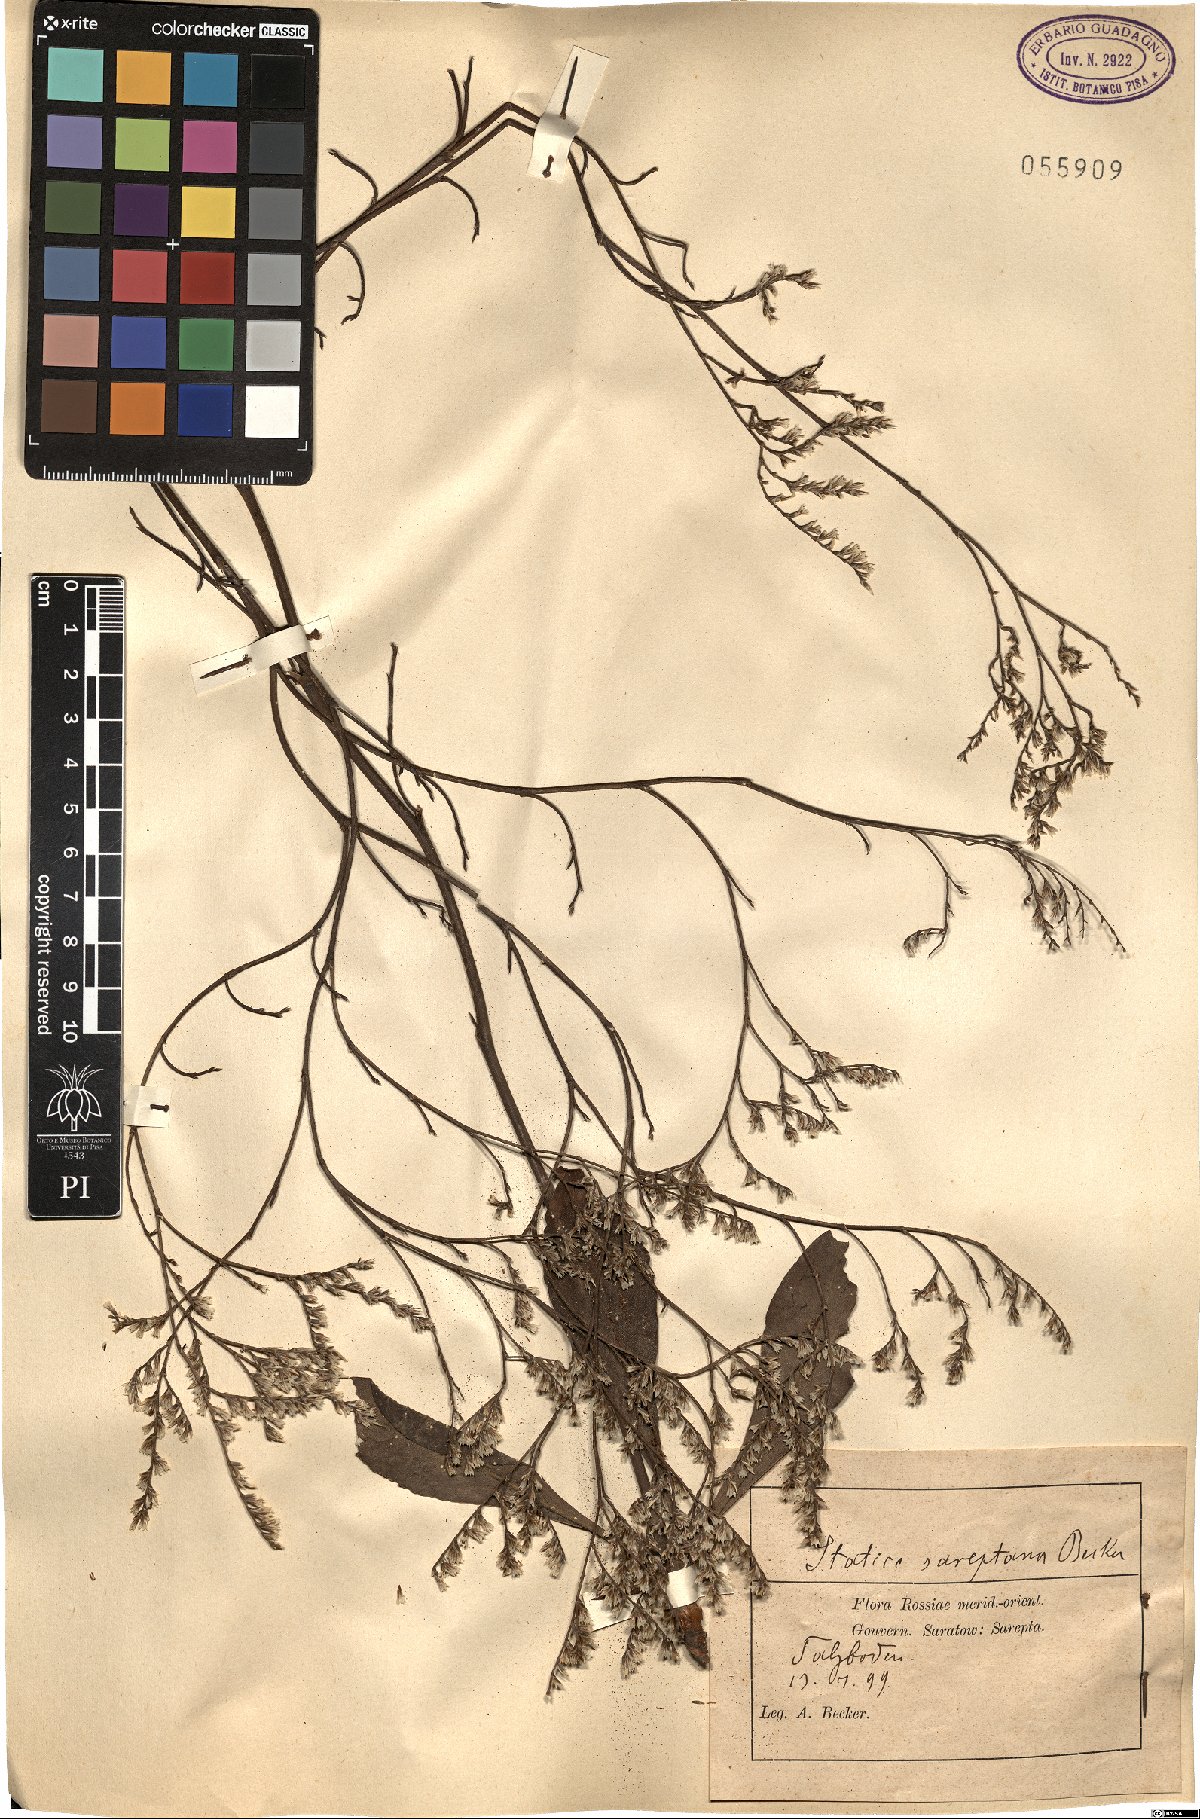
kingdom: Plantae
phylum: Tracheophyta
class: Magnoliopsida
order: Caryophyllales
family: Plumbaginaceae
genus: Limonium
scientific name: Limonium sareptanum
